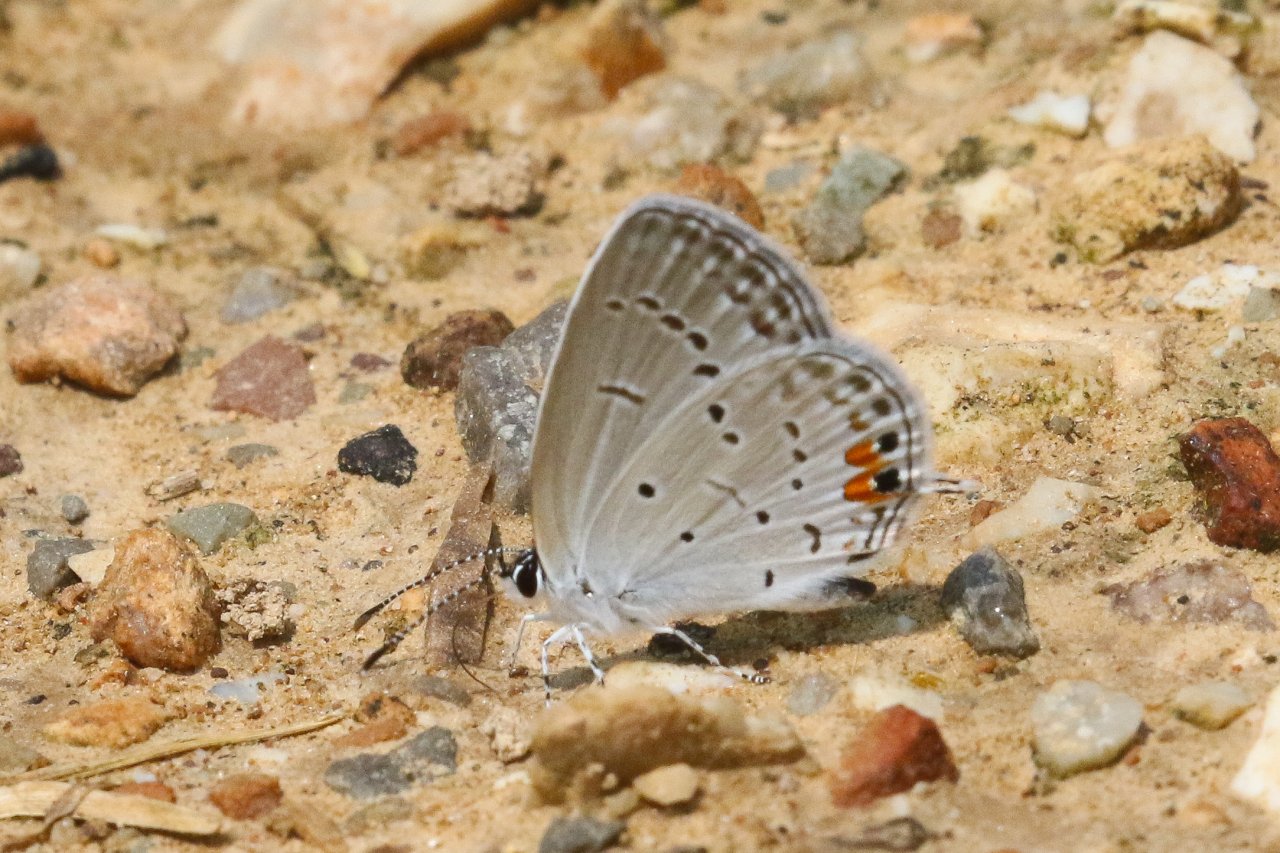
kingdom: Animalia
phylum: Arthropoda
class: Insecta
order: Lepidoptera
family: Lycaenidae
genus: Elkalyce
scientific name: Elkalyce comyntas
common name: Eastern Tailed-Blue
